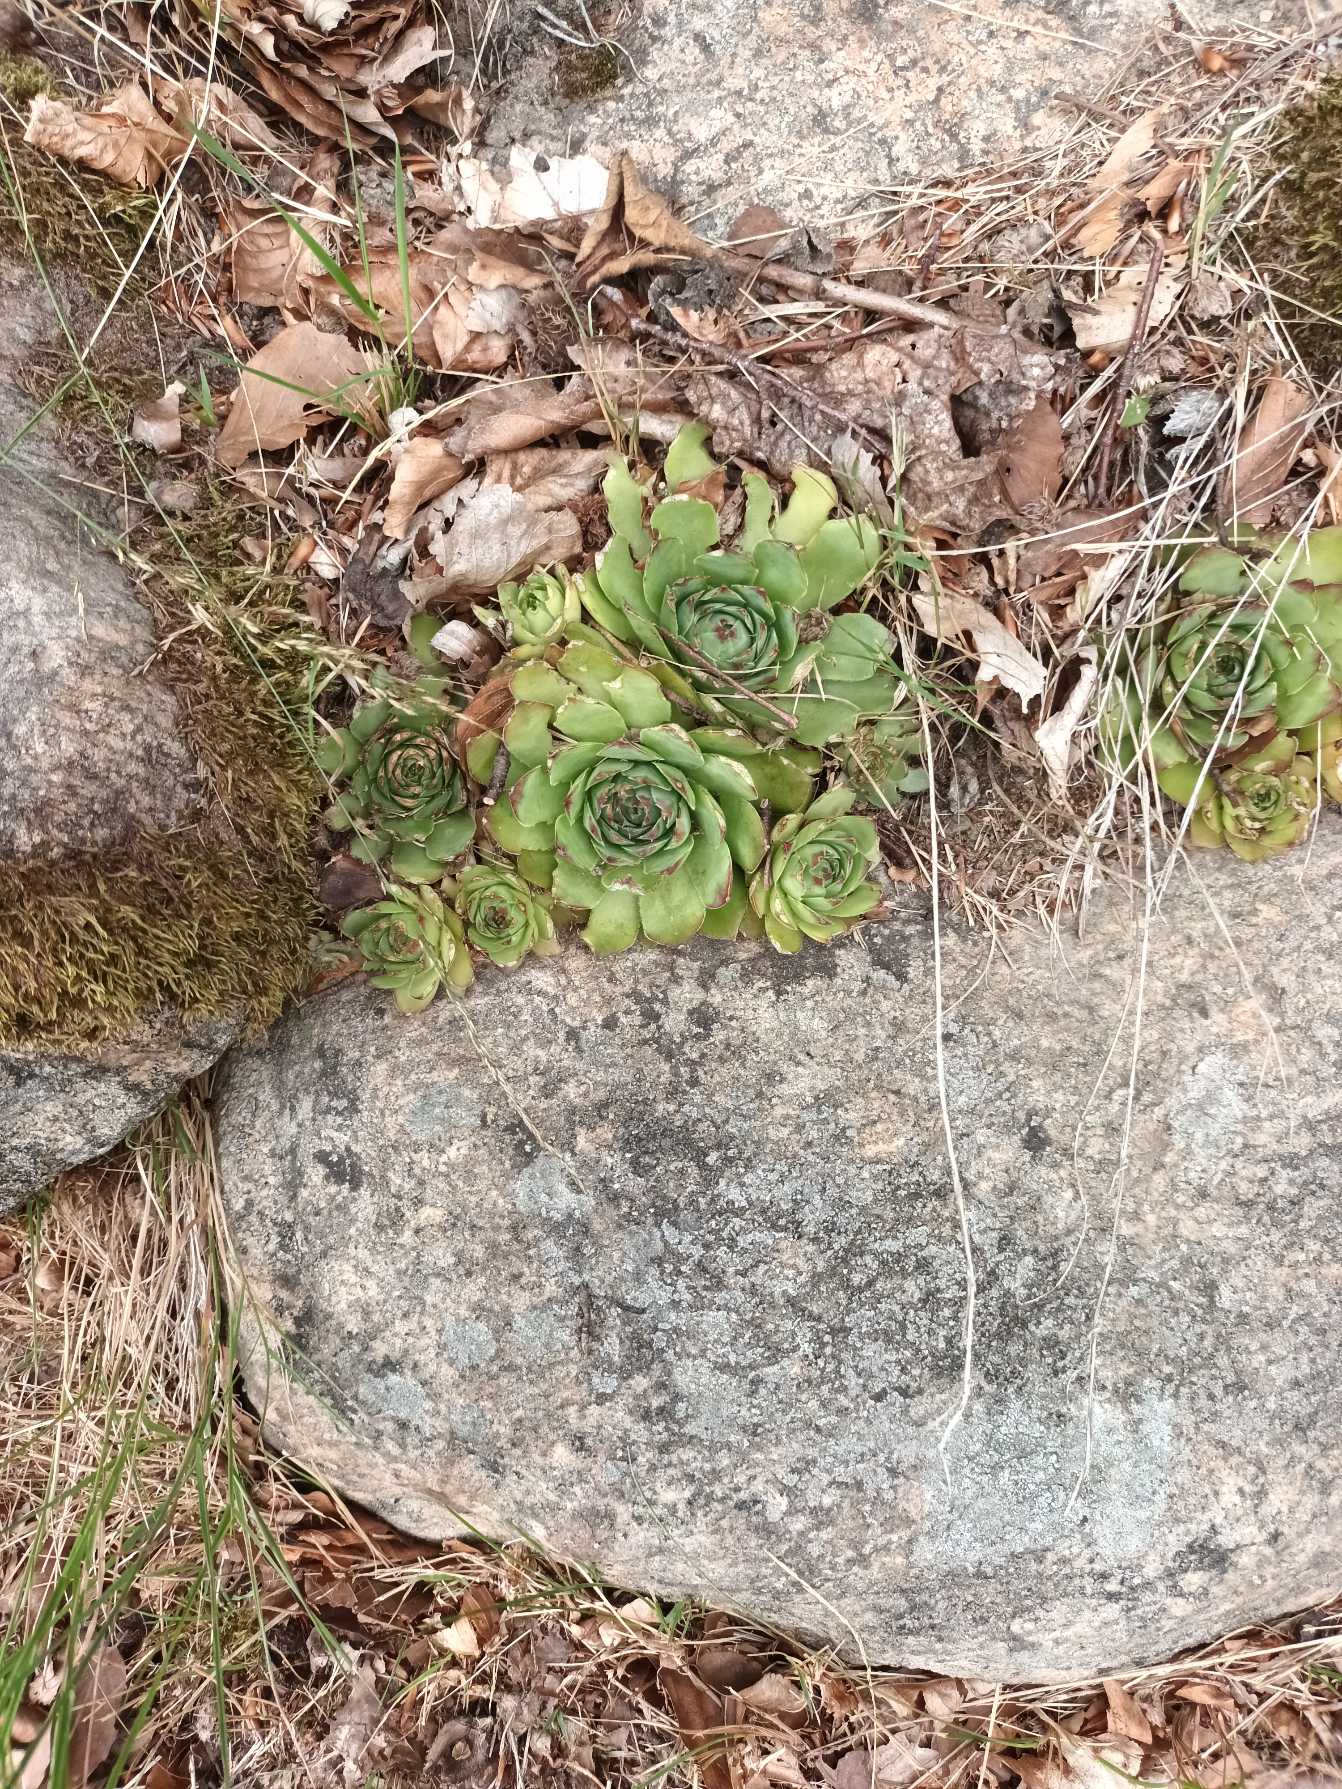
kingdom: Plantae
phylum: Tracheophyta
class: Magnoliopsida
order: Saxifragales
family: Crassulaceae
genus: Sempervivum
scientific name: Sempervivum tectorum
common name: Husløg
